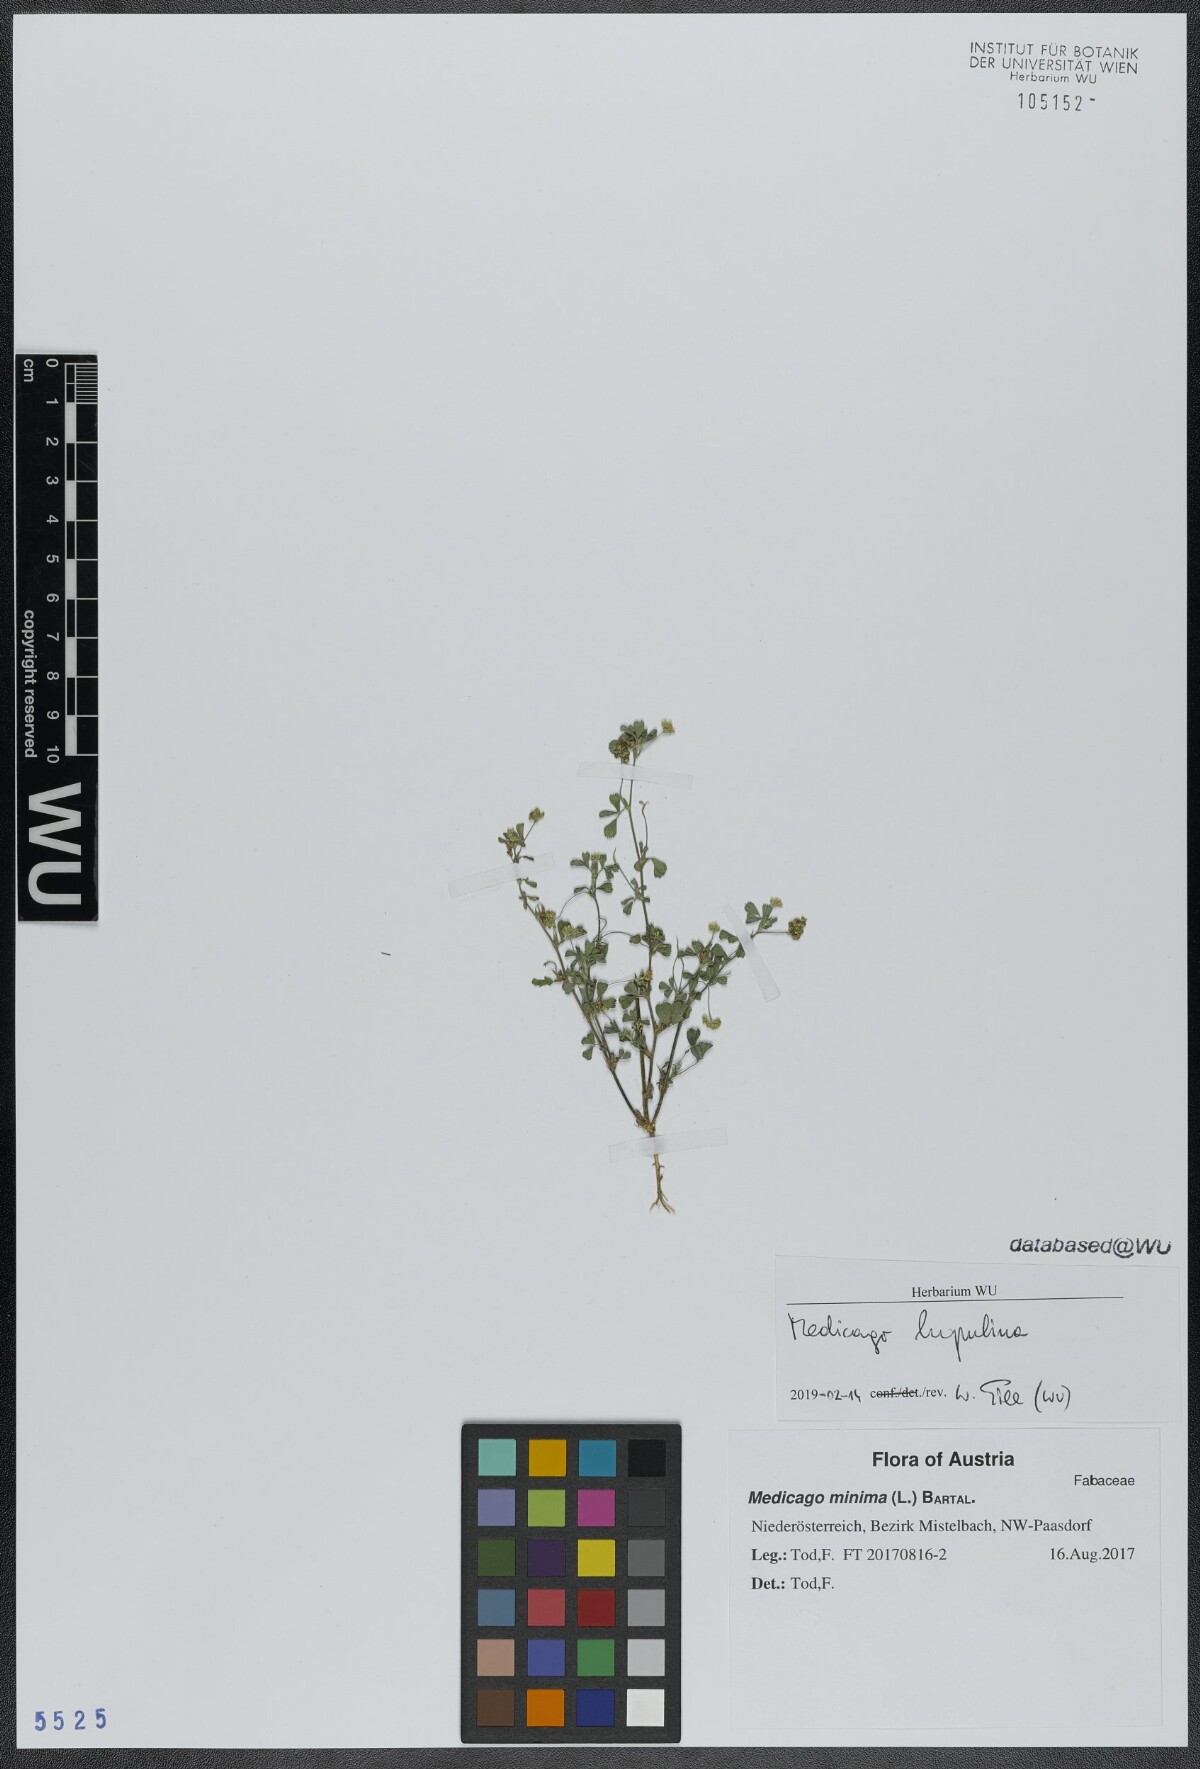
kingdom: Plantae
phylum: Tracheophyta
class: Magnoliopsida
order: Fabales
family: Fabaceae
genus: Medicago
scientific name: Medicago lupulina
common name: Black medick
